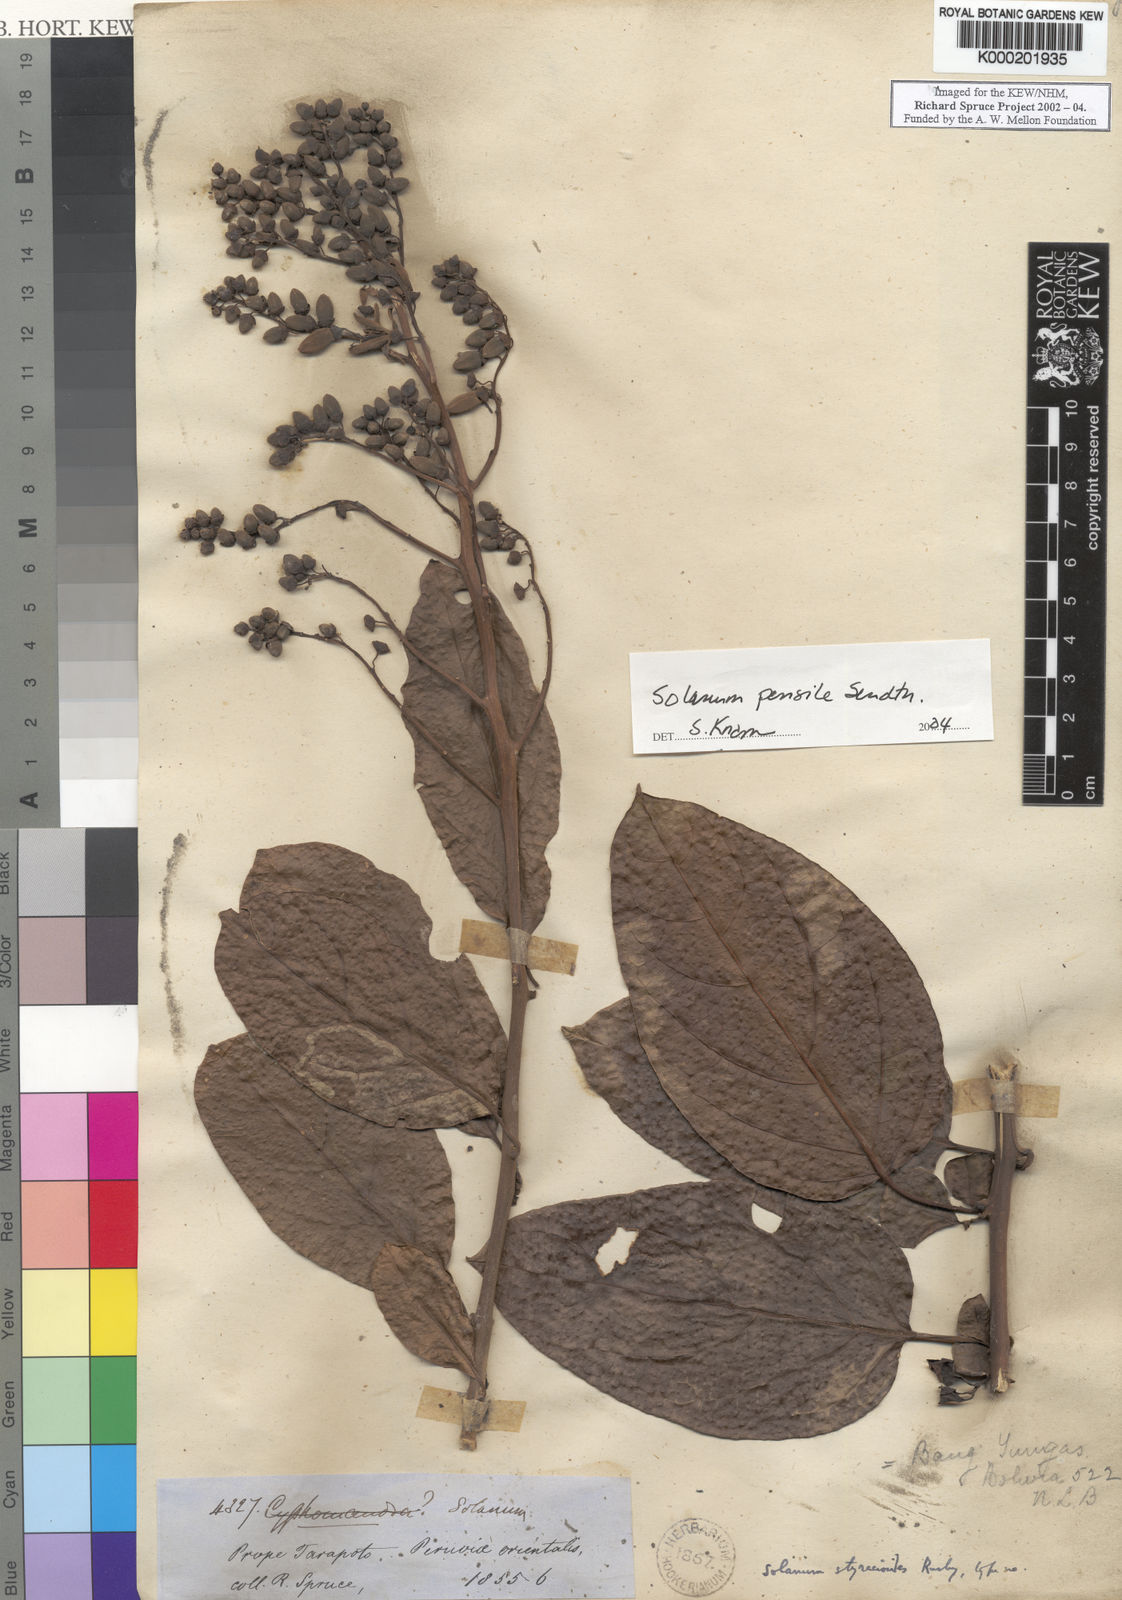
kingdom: Plantae
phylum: Tracheophyta
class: Magnoliopsida
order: Solanales
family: Solanaceae
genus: Solanum
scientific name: Solanum uncinellum
